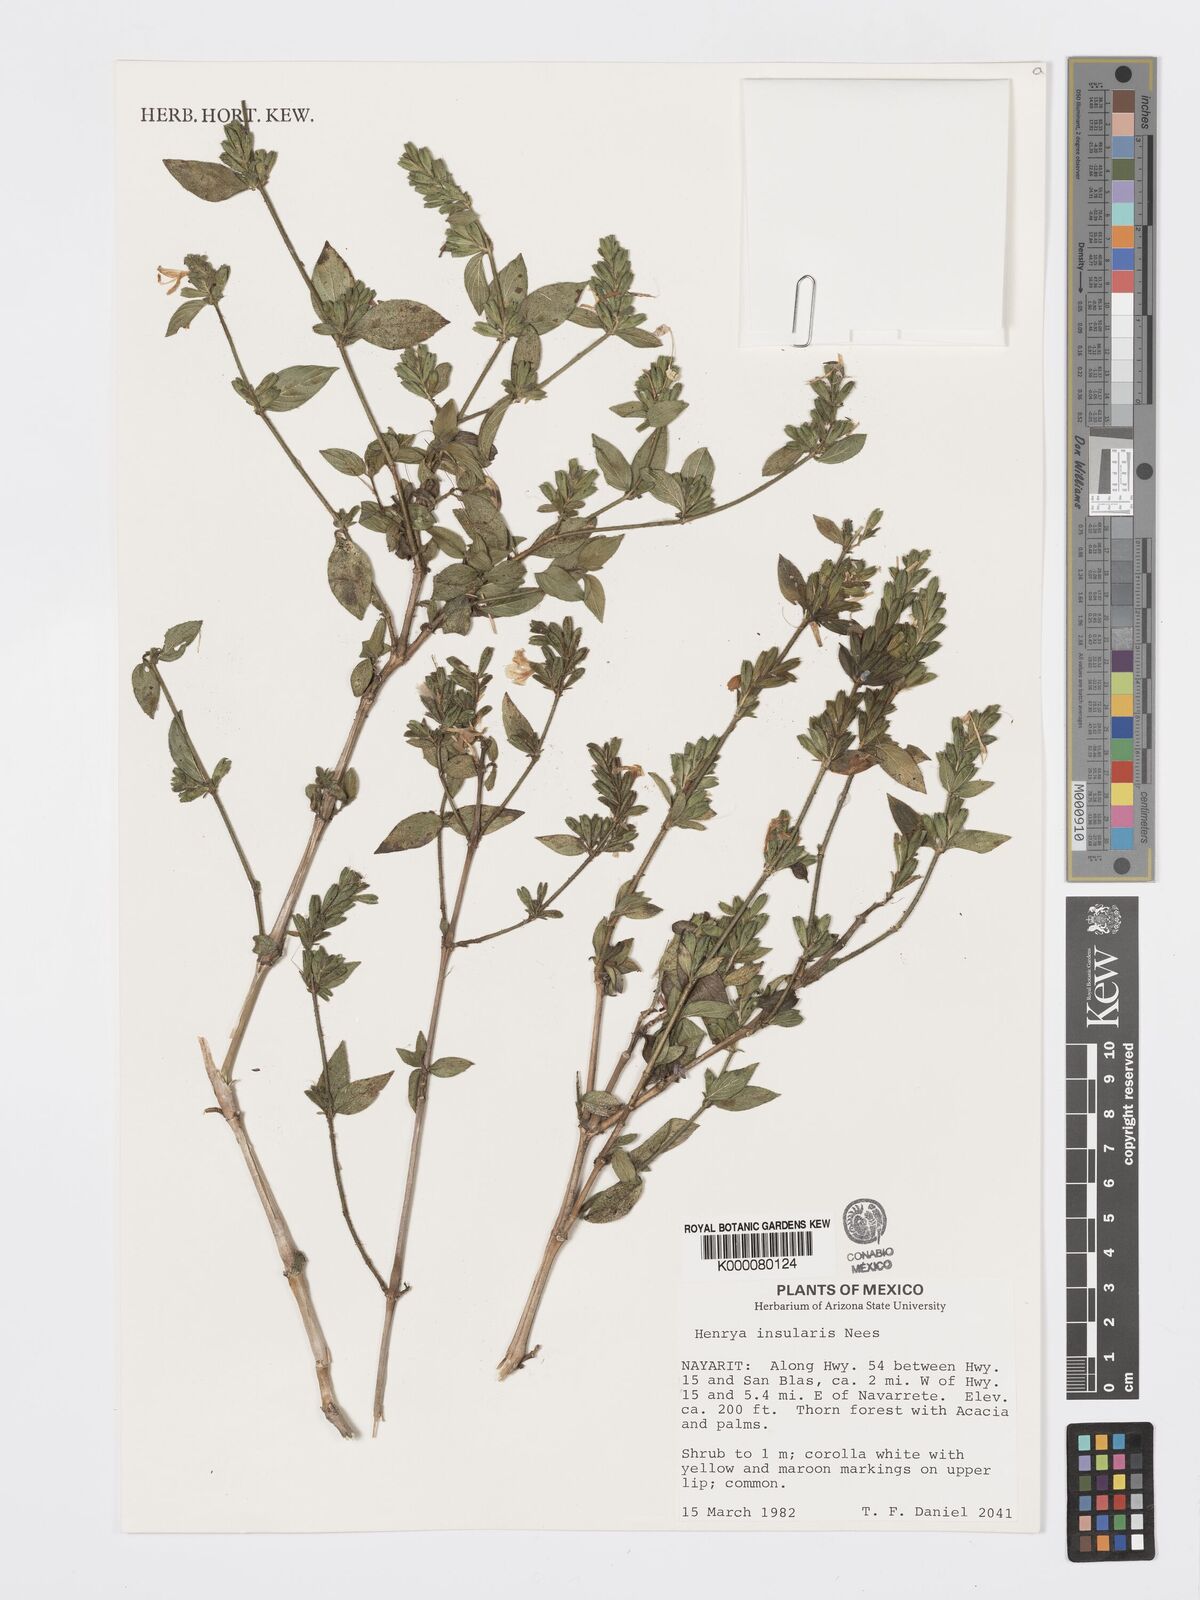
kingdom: Plantae
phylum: Tracheophyta
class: Magnoliopsida
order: Lamiales
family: Acanthaceae
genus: Henrya
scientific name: Henrya
